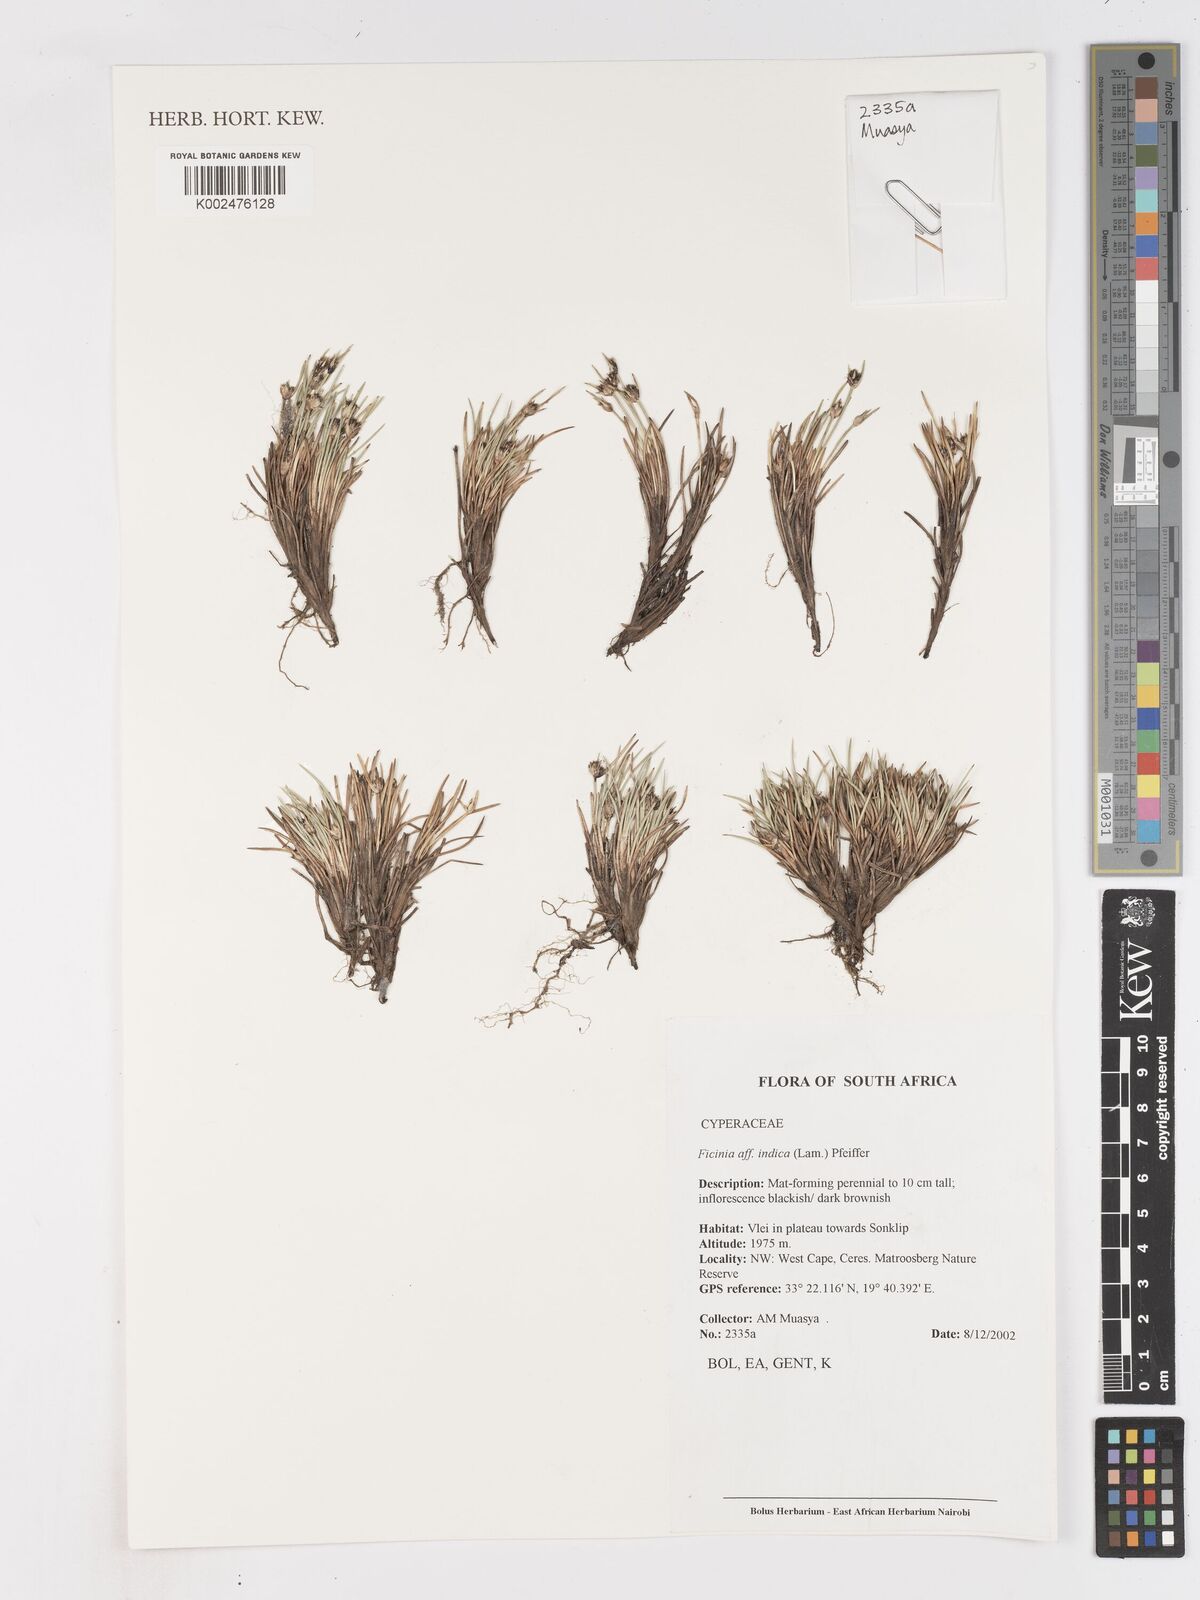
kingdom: Plantae
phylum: Tracheophyta
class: Liliopsida
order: Poales
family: Cyperaceae
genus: Ficinia
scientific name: Ficinia indica
